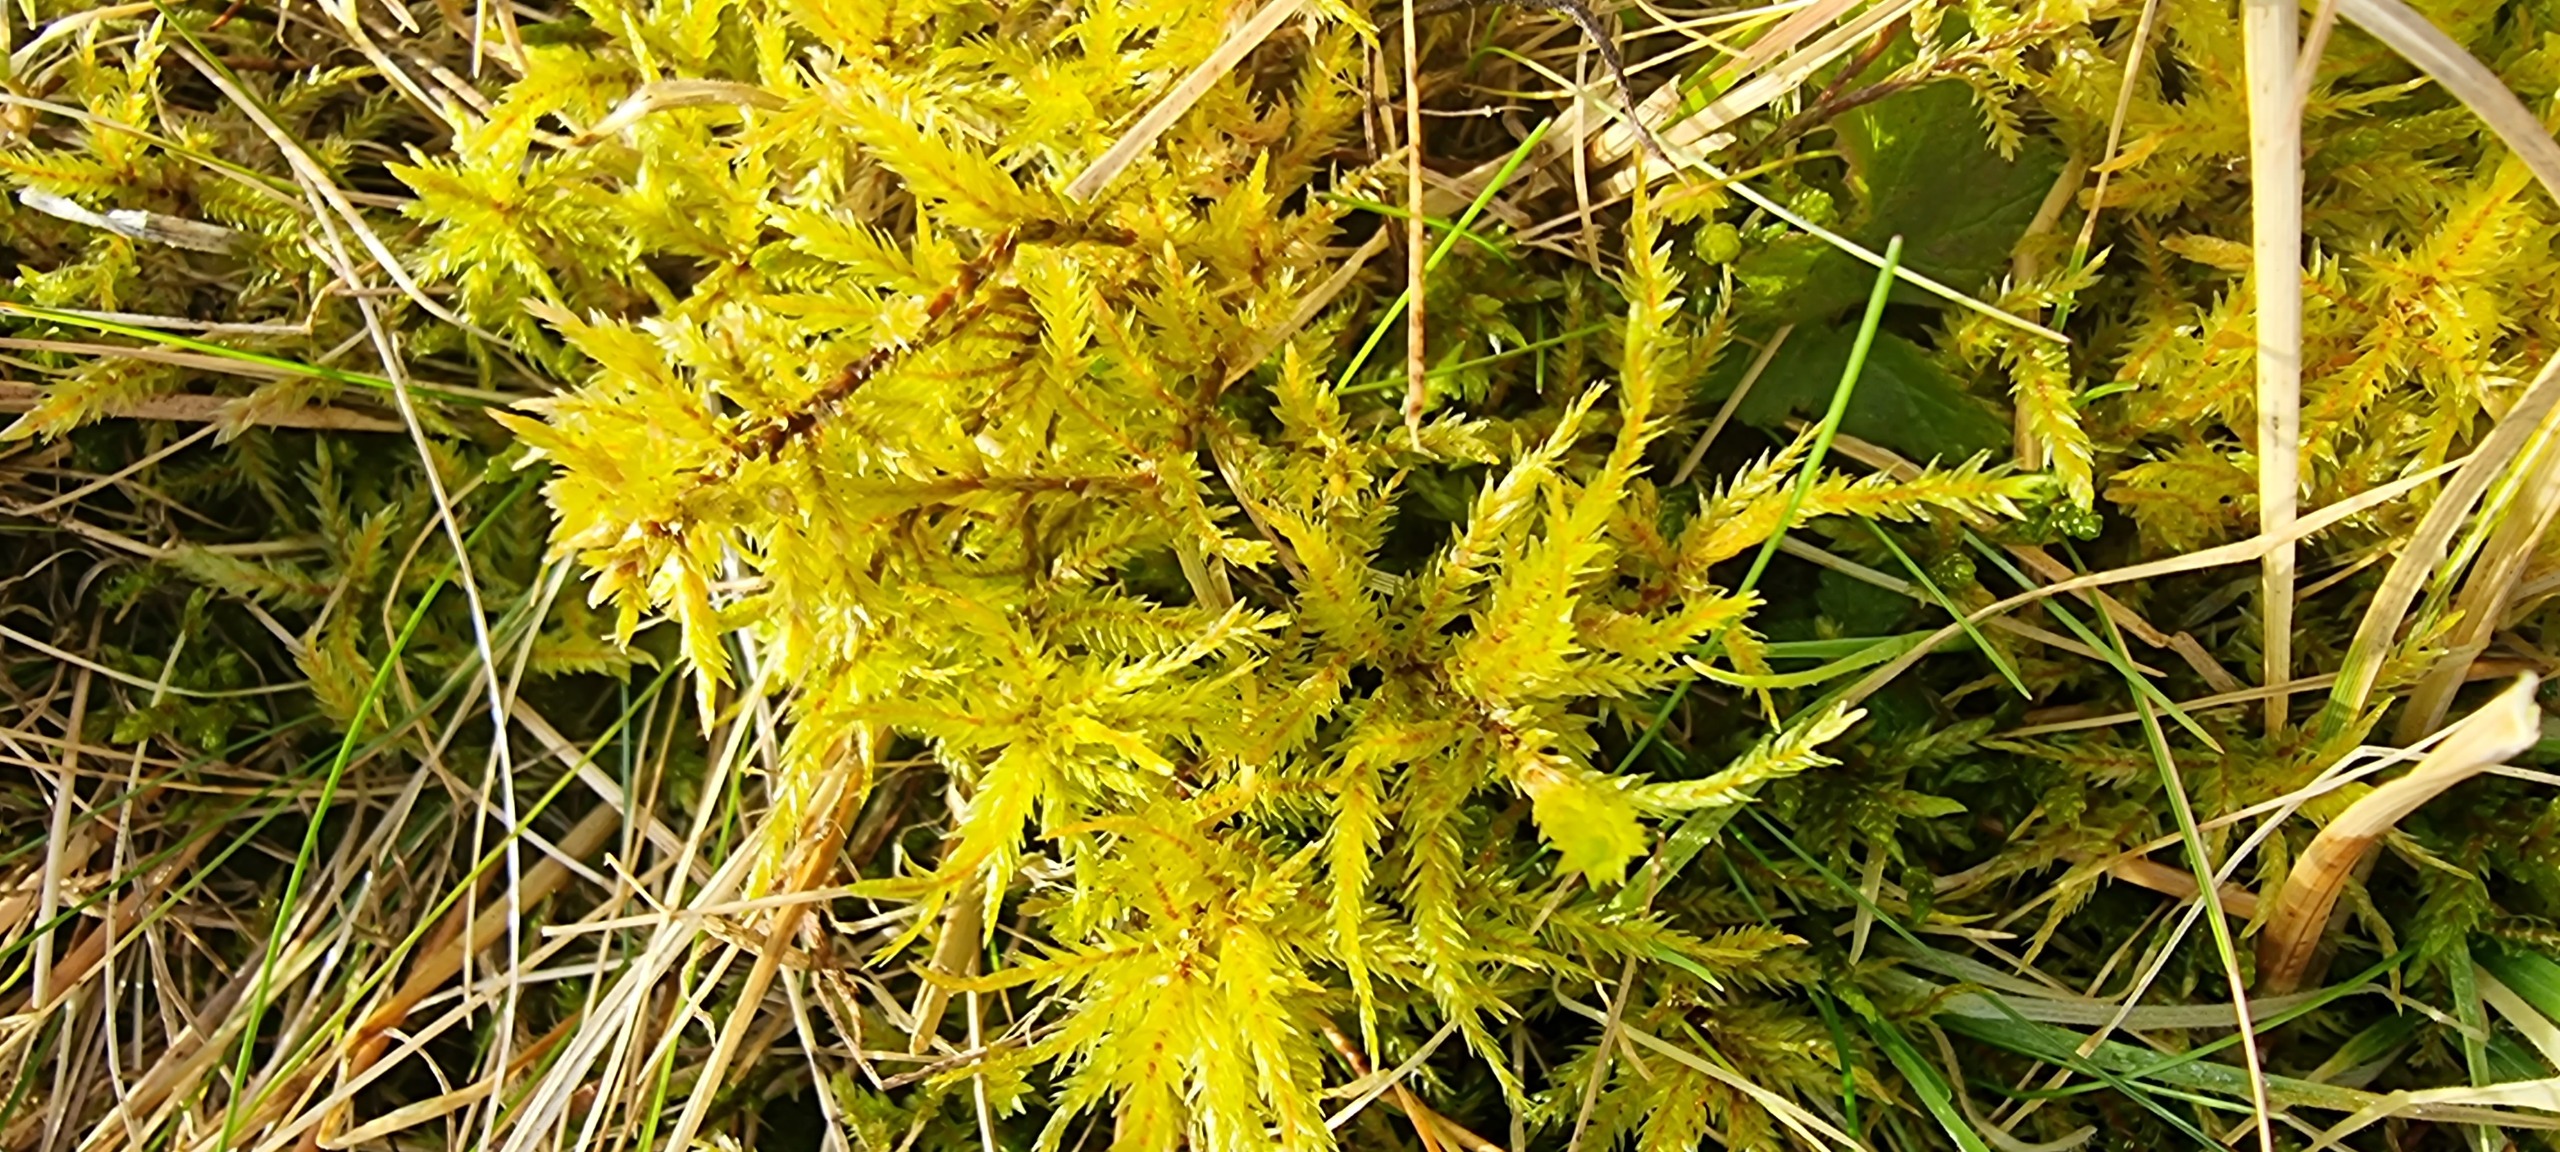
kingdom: Plantae
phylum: Bryophyta
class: Bryopsida
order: Hypnales
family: Climaciaceae
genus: Climacium
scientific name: Climacium dendroides
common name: Stor engkost
